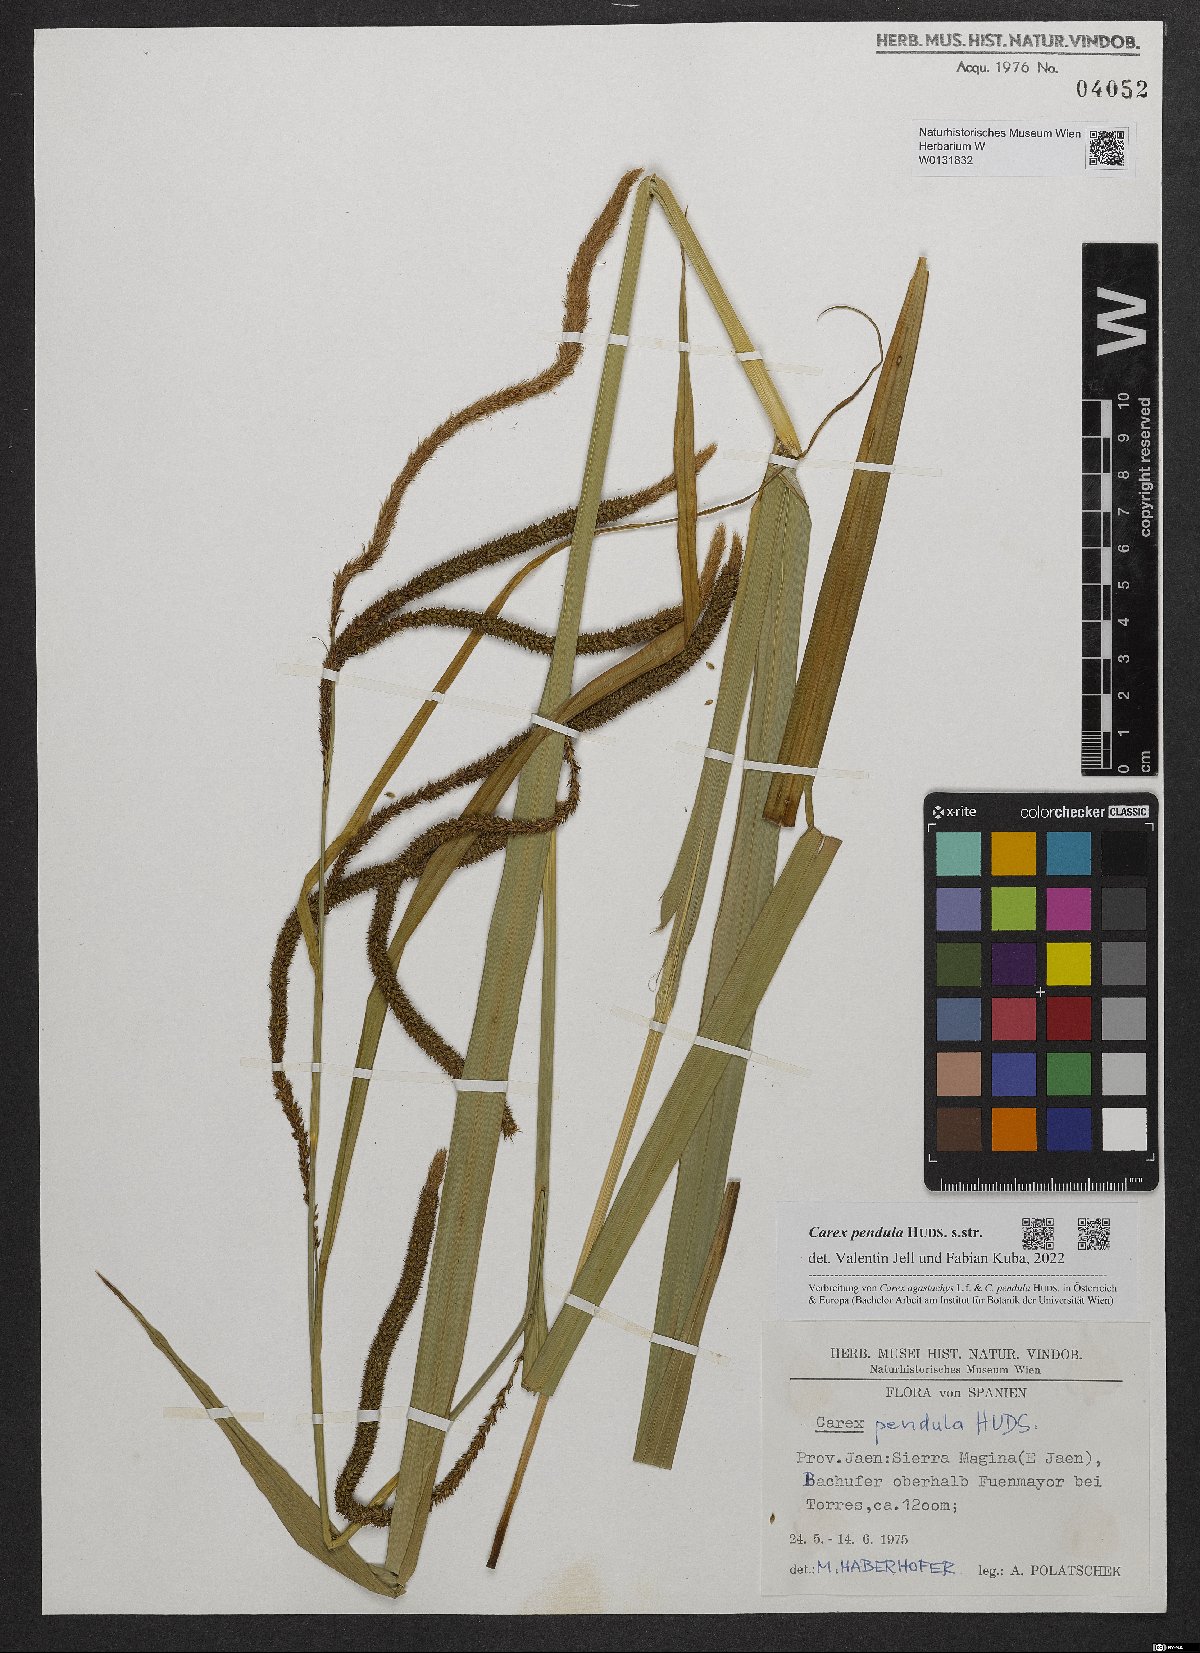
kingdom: Plantae
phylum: Tracheophyta
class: Liliopsida
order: Poales
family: Cyperaceae
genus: Carex
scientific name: Carex pendula
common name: Pendulous sedge
